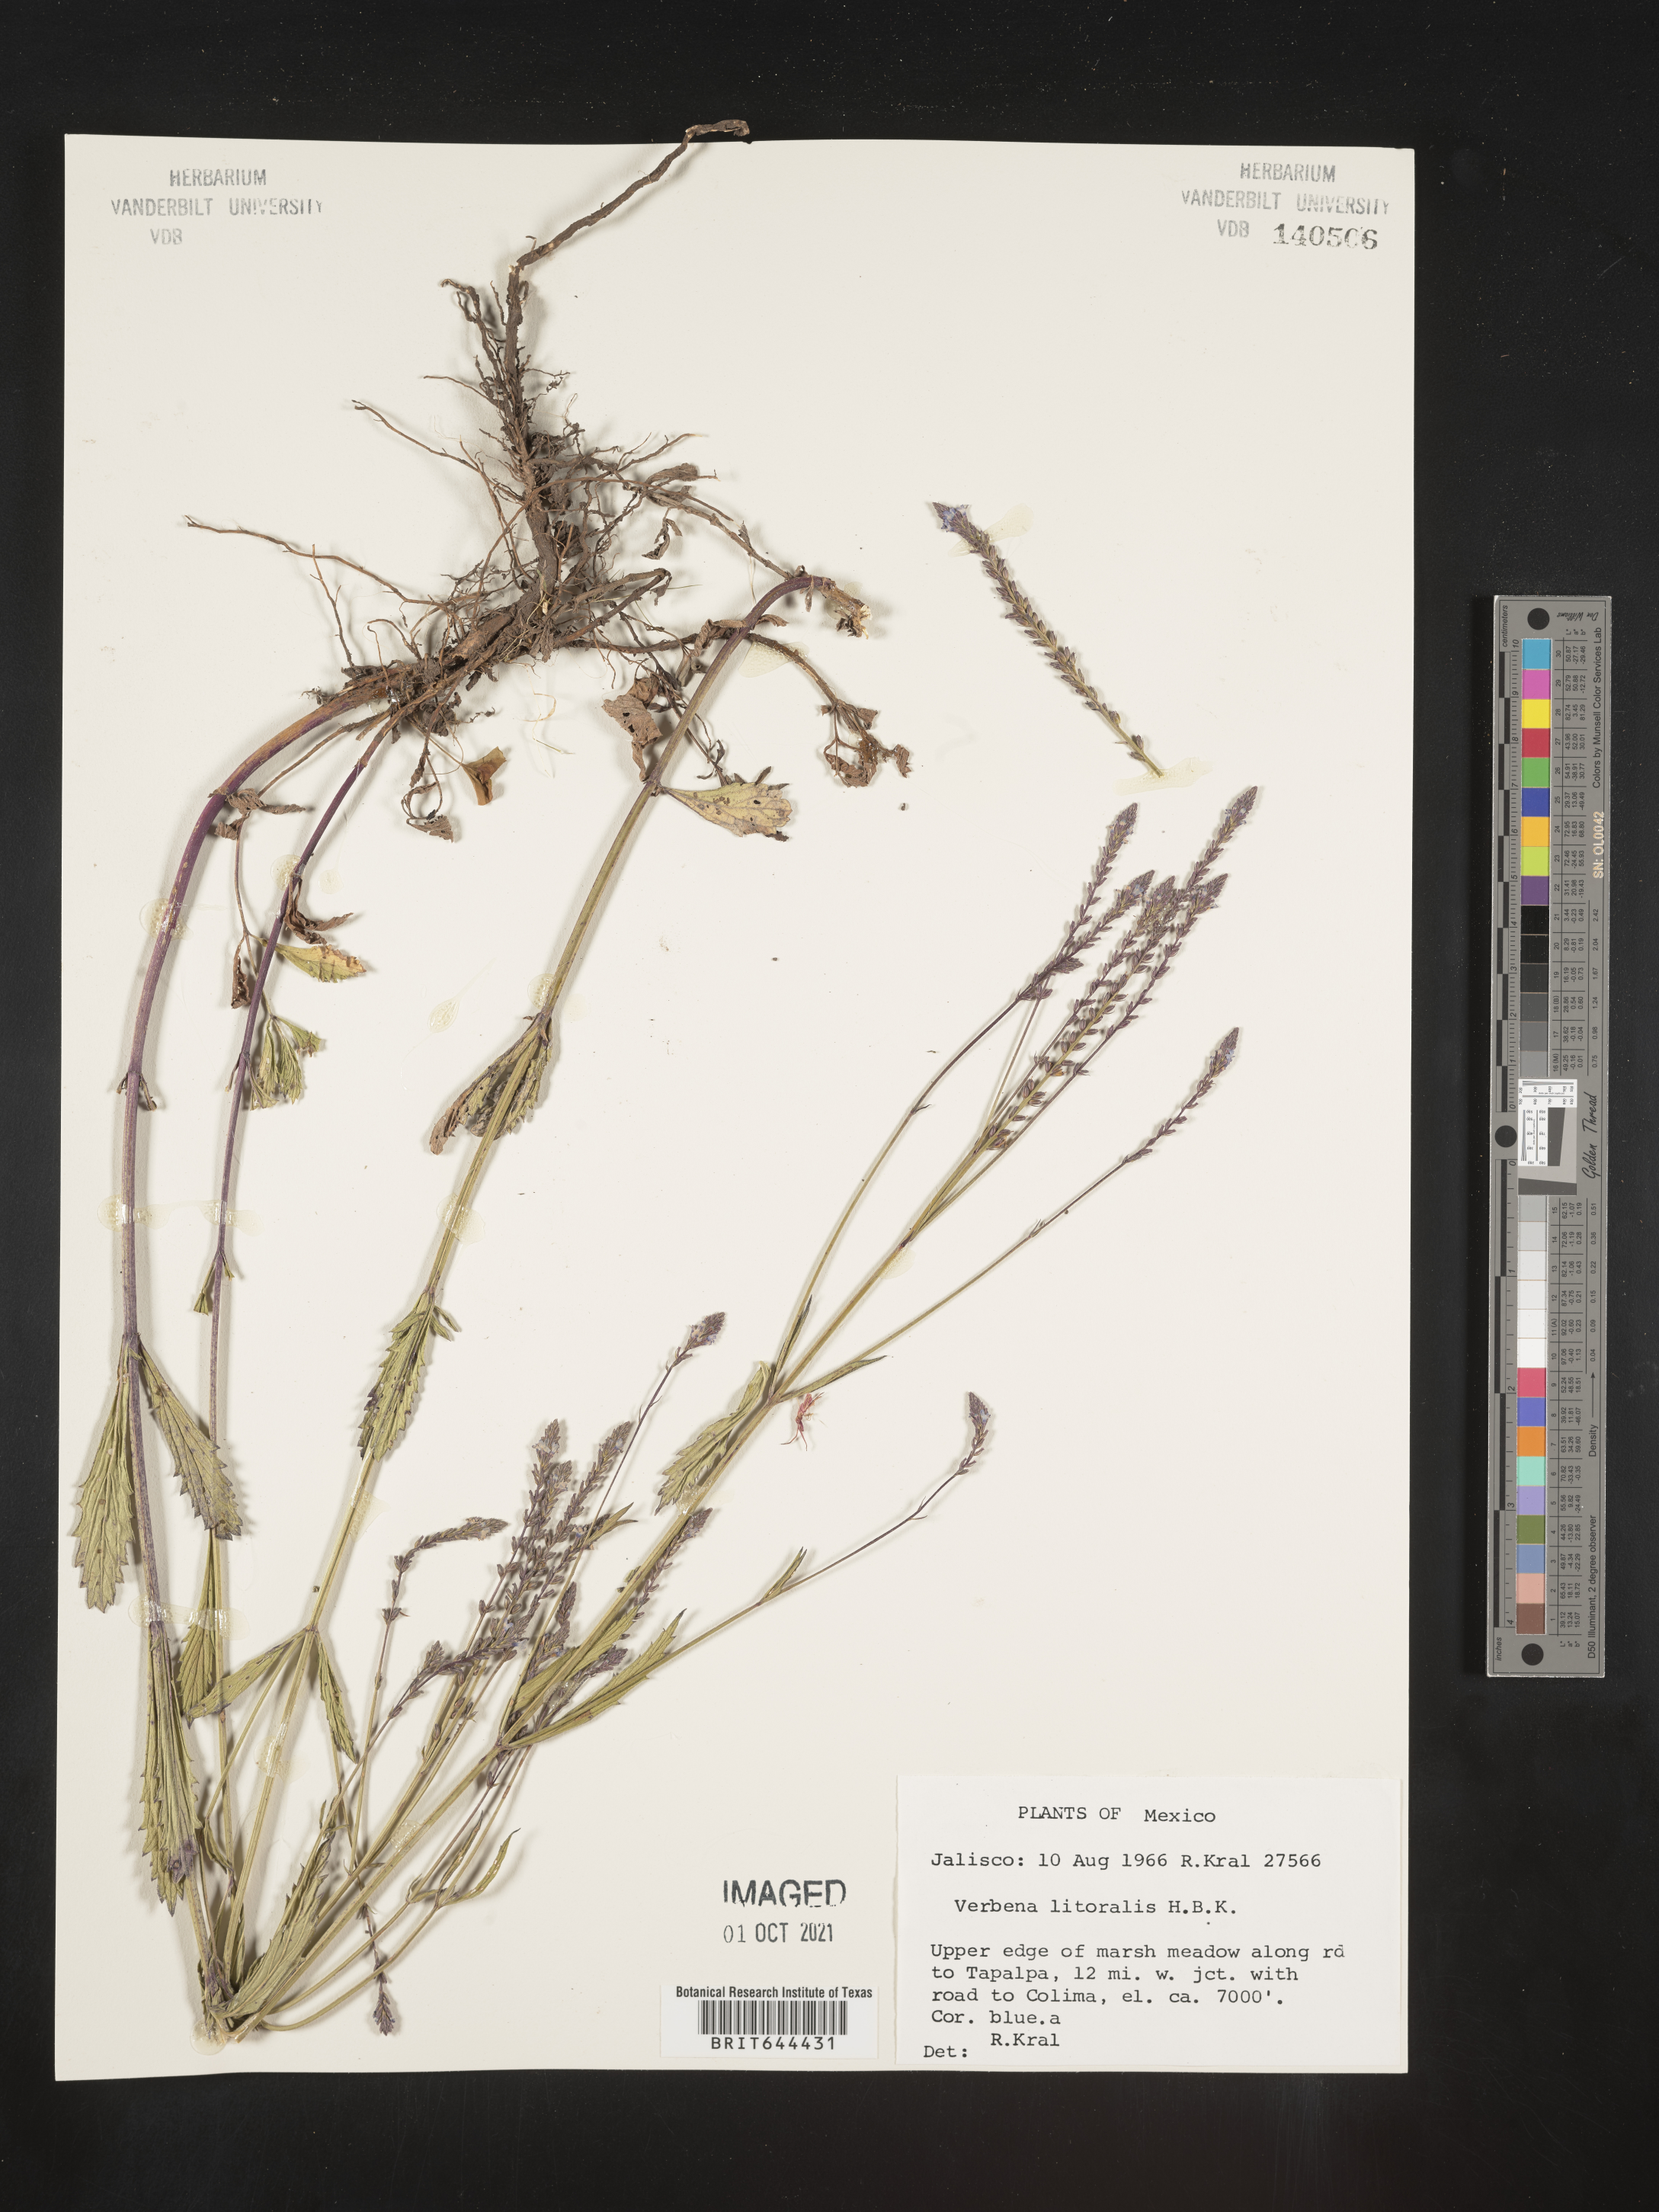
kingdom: Plantae
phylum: Tracheophyta
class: Magnoliopsida
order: Lamiales
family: Verbenaceae
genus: Verbena
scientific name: Verbena
